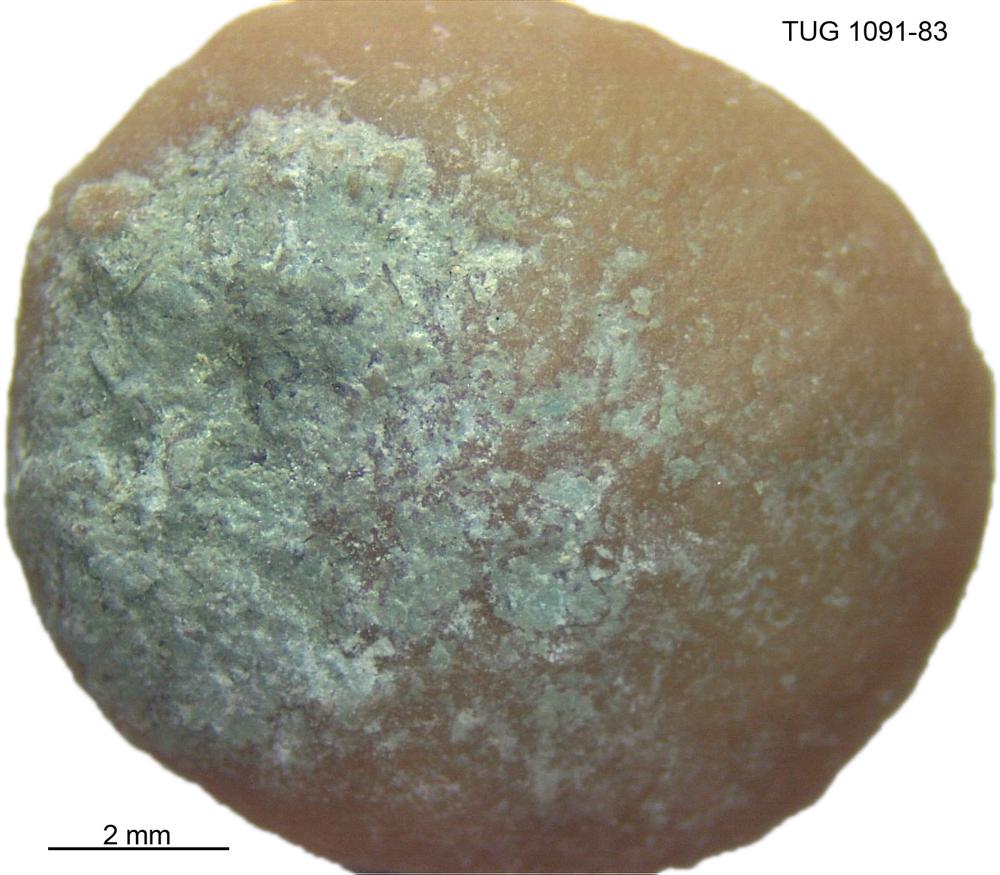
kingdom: Animalia
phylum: Porifera
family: Stromatoporidae
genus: Stromatopora
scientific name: Stromatopora
